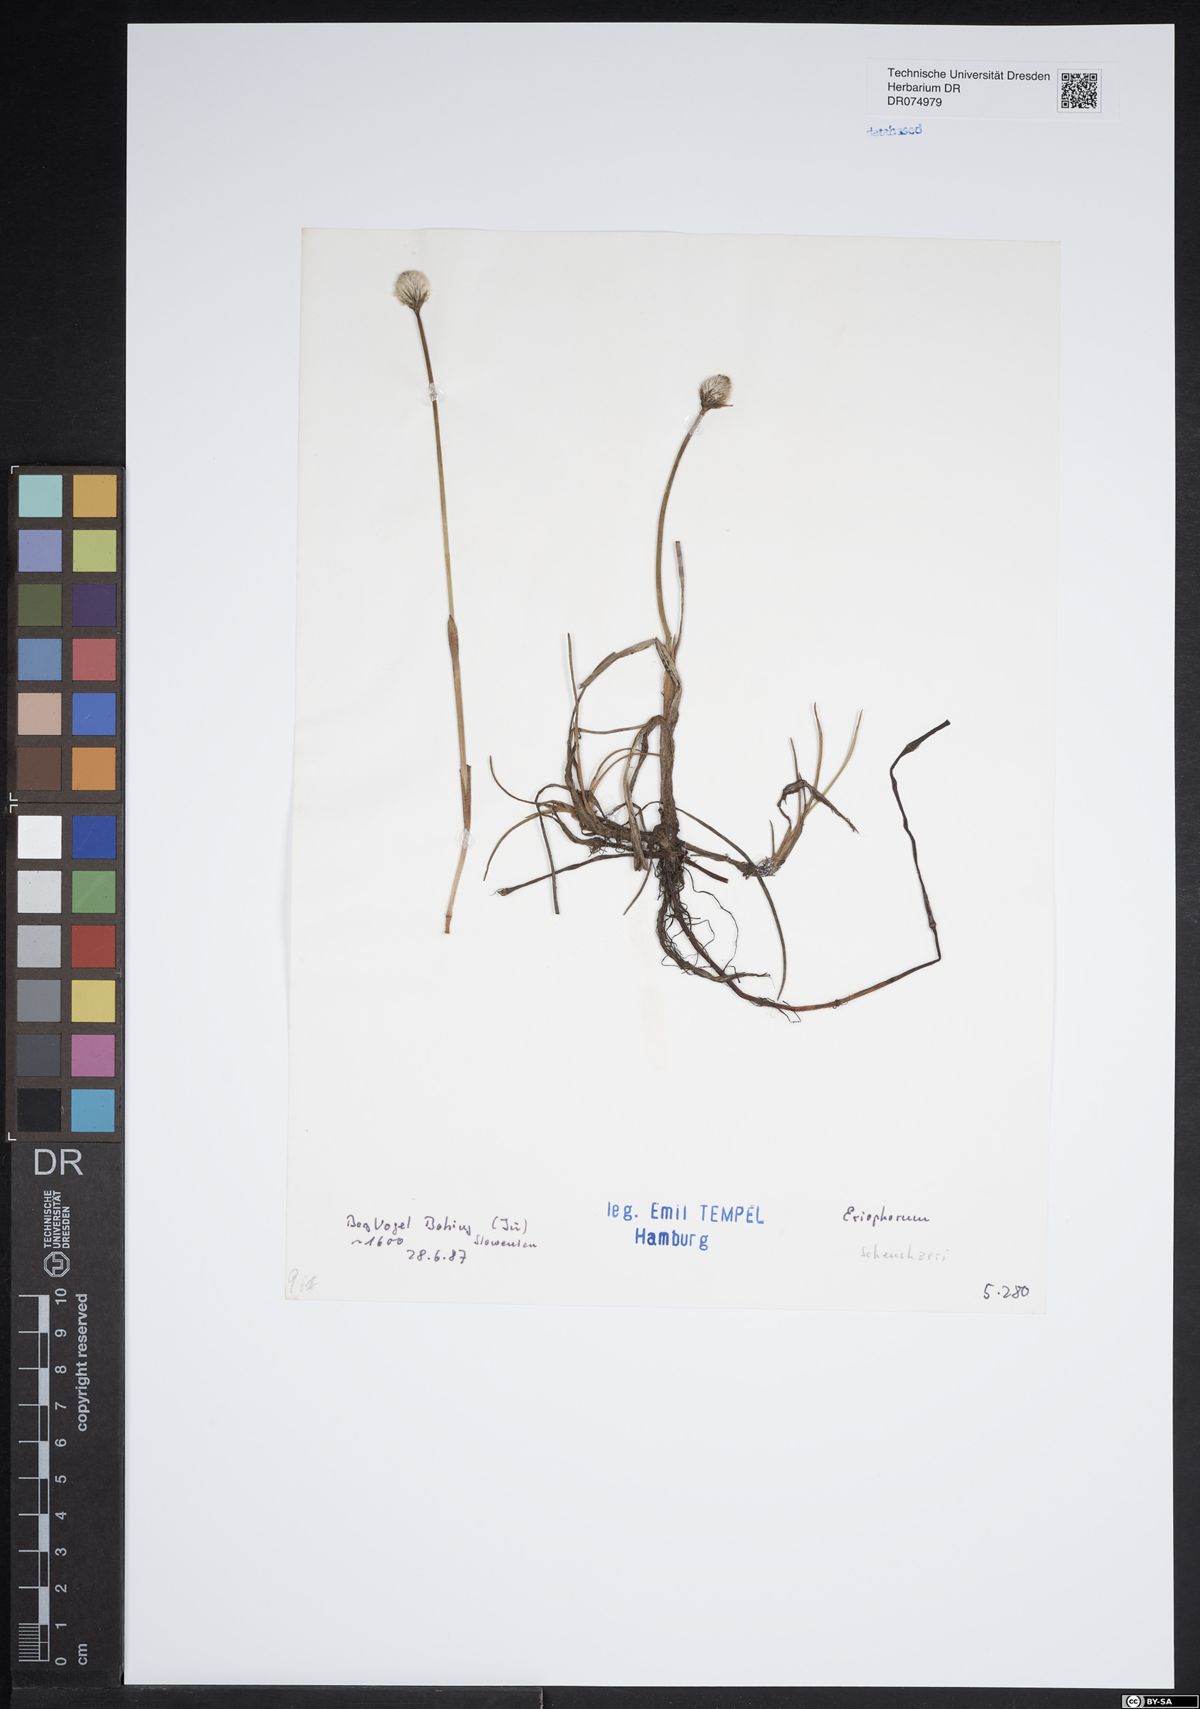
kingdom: Plantae
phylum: Tracheophyta
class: Liliopsida
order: Poales
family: Cyperaceae
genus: Eriophorum
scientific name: Eriophorum scheuchzeri
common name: Scheuchzer's cottongrass
